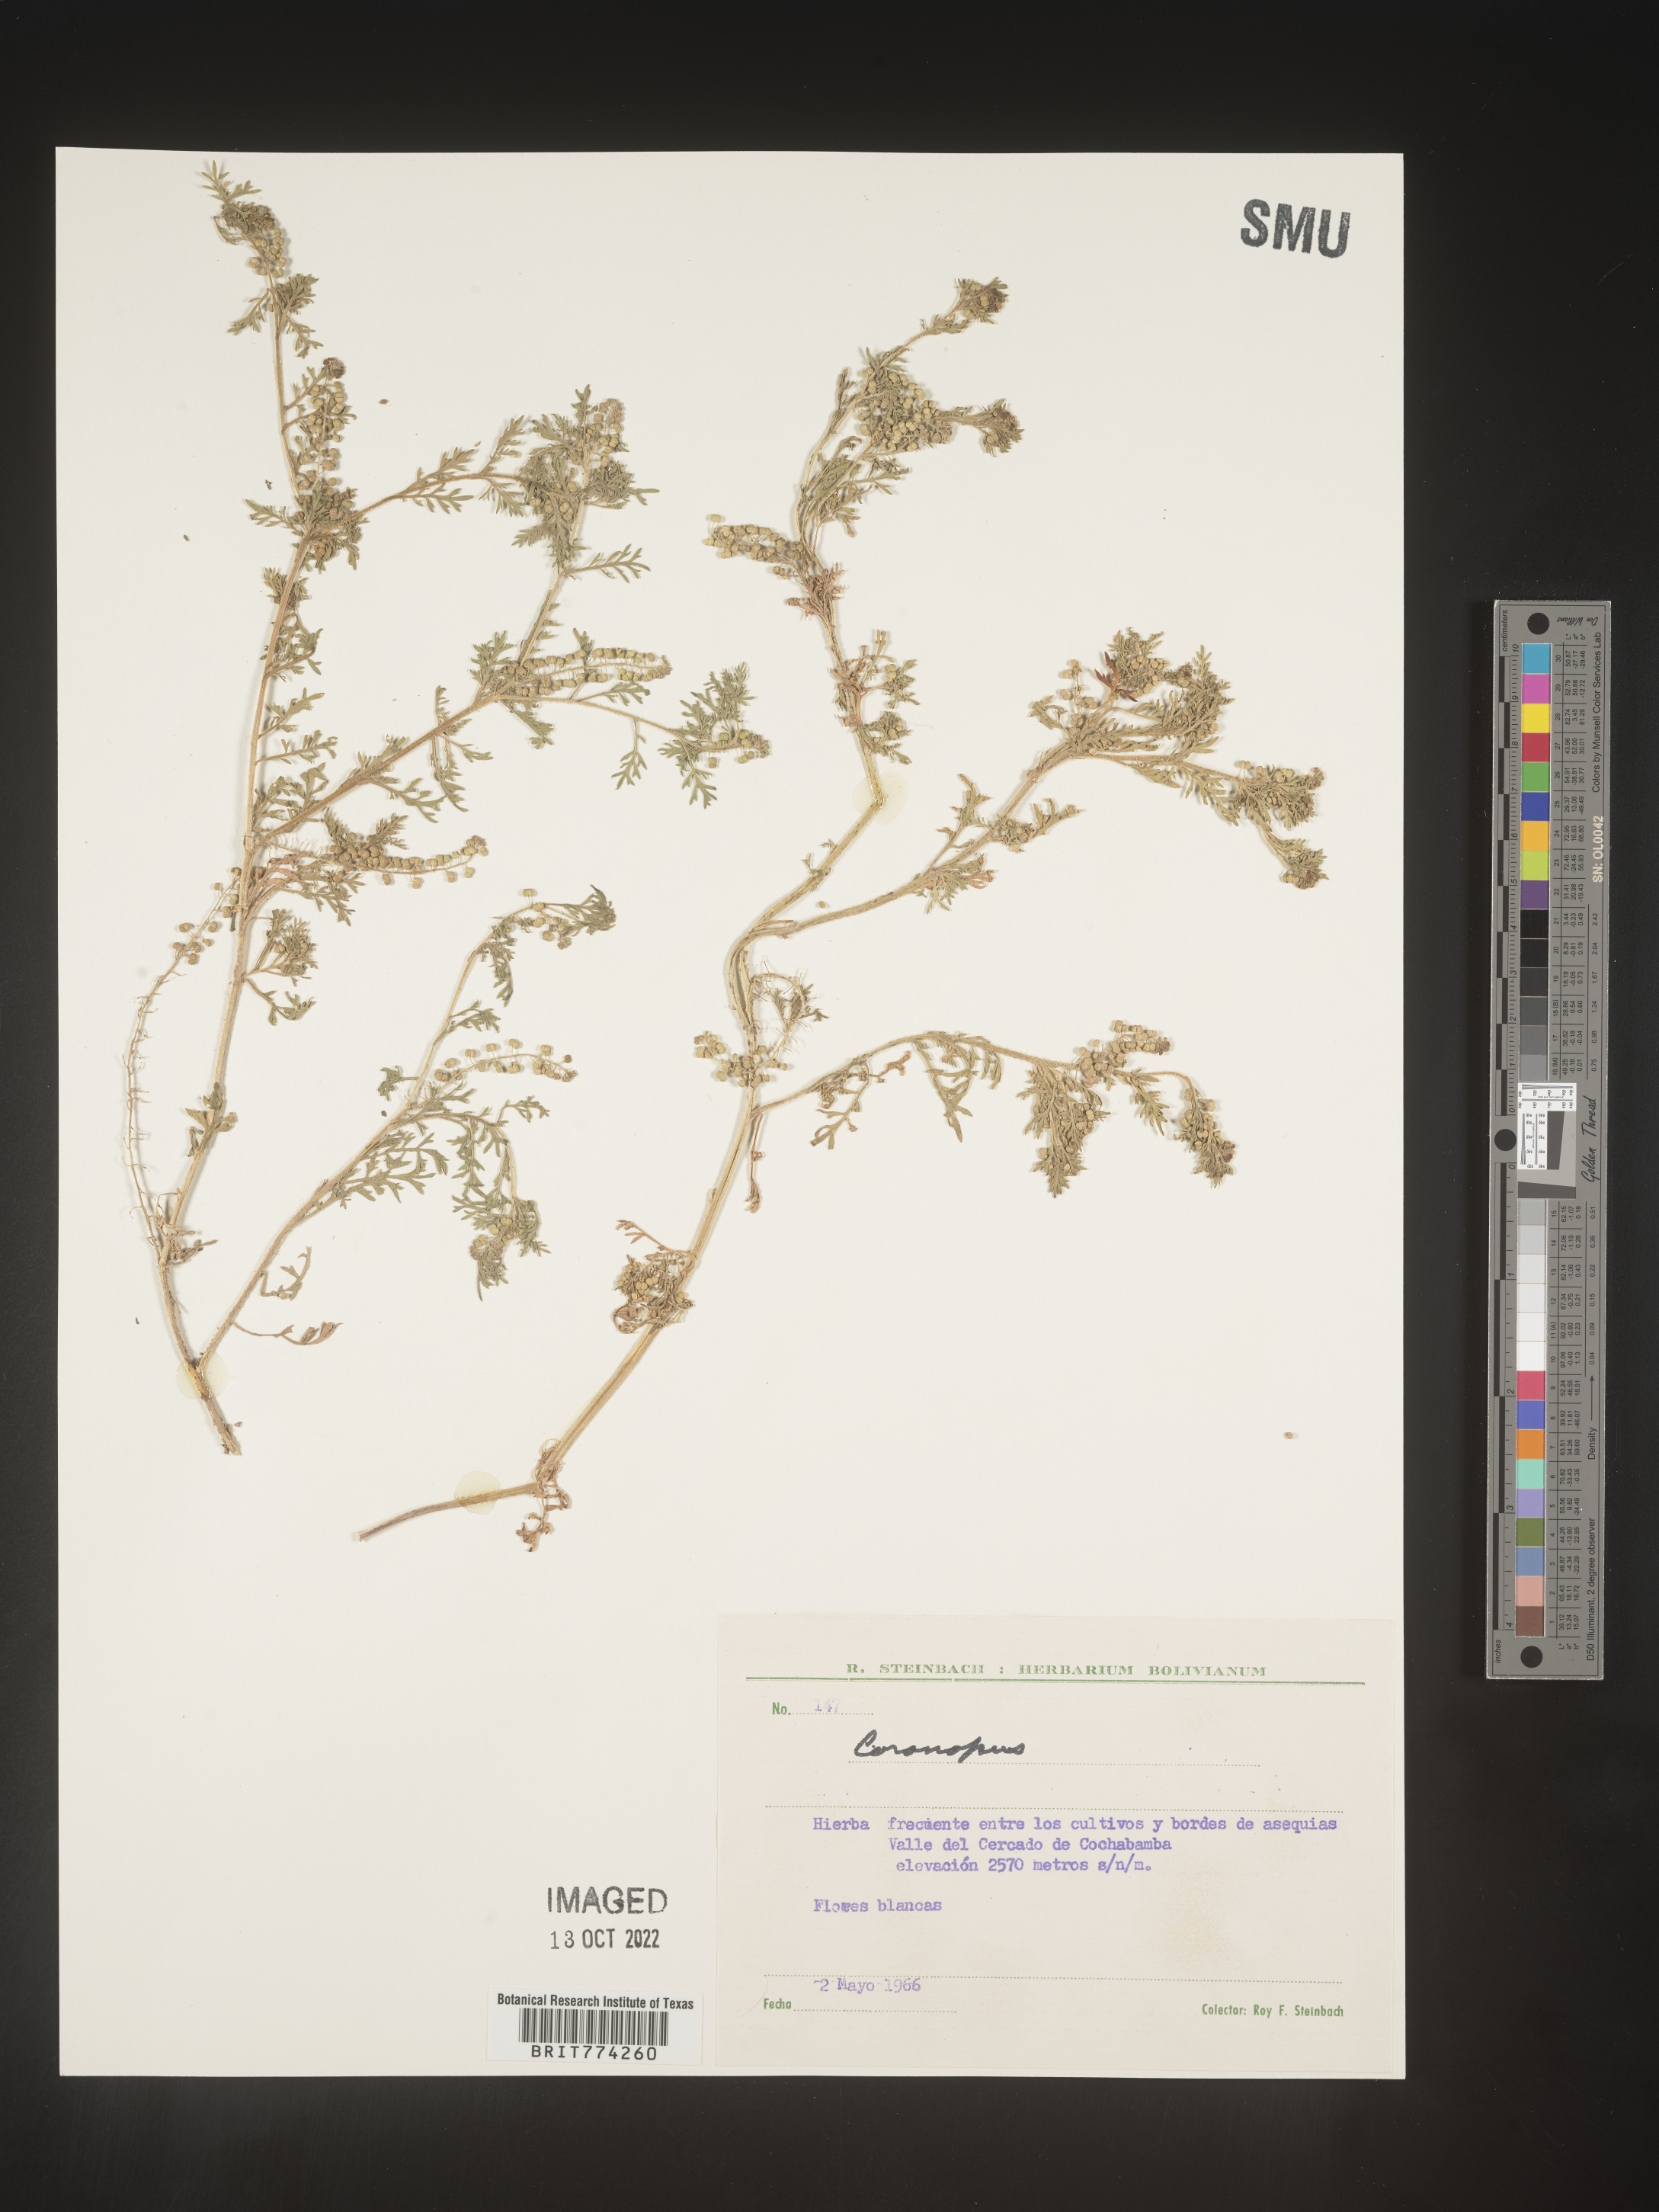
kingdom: Plantae
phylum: Tracheophyta
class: Magnoliopsida
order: Brassicales
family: Brassicaceae
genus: Coronopus
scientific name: Coronopus
